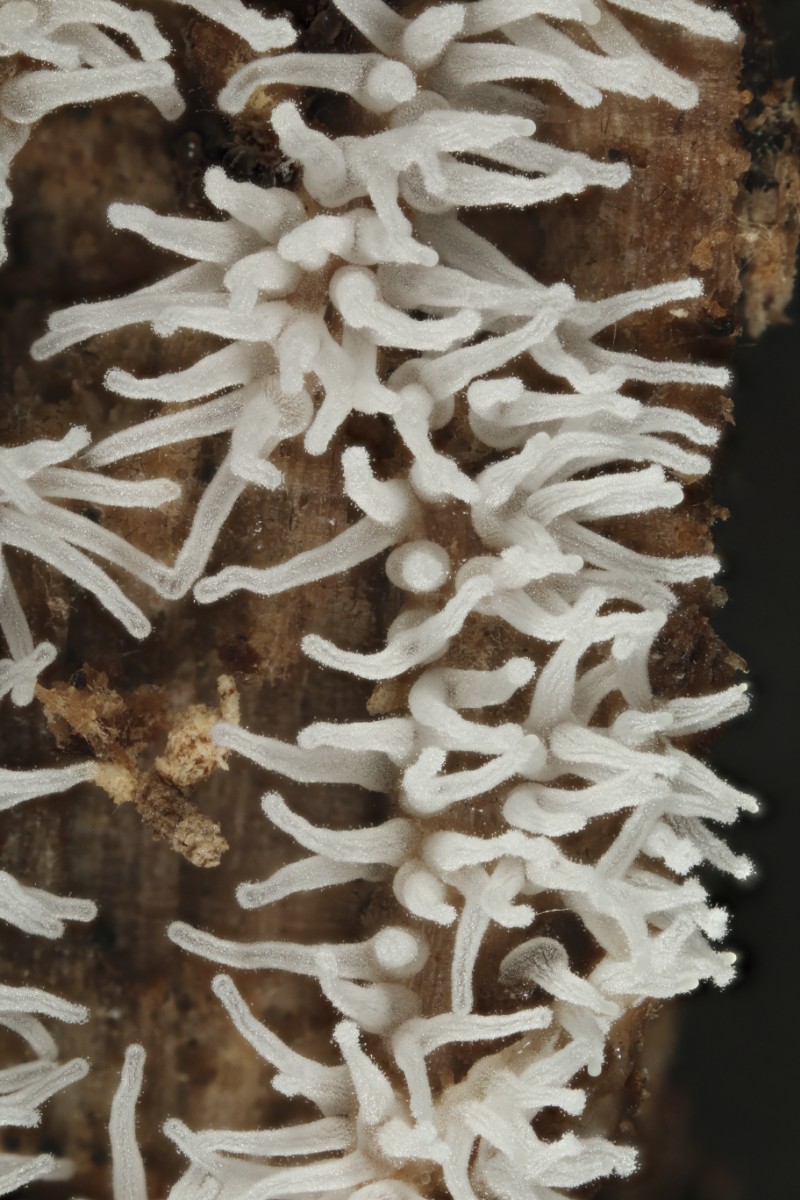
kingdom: Protozoa
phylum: Mycetozoa
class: Protosteliomycetes
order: Ceratiomyxales
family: Ceratiomyxaceae
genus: Ceratiomyxa
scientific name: Ceratiomyxa fruticulosa
